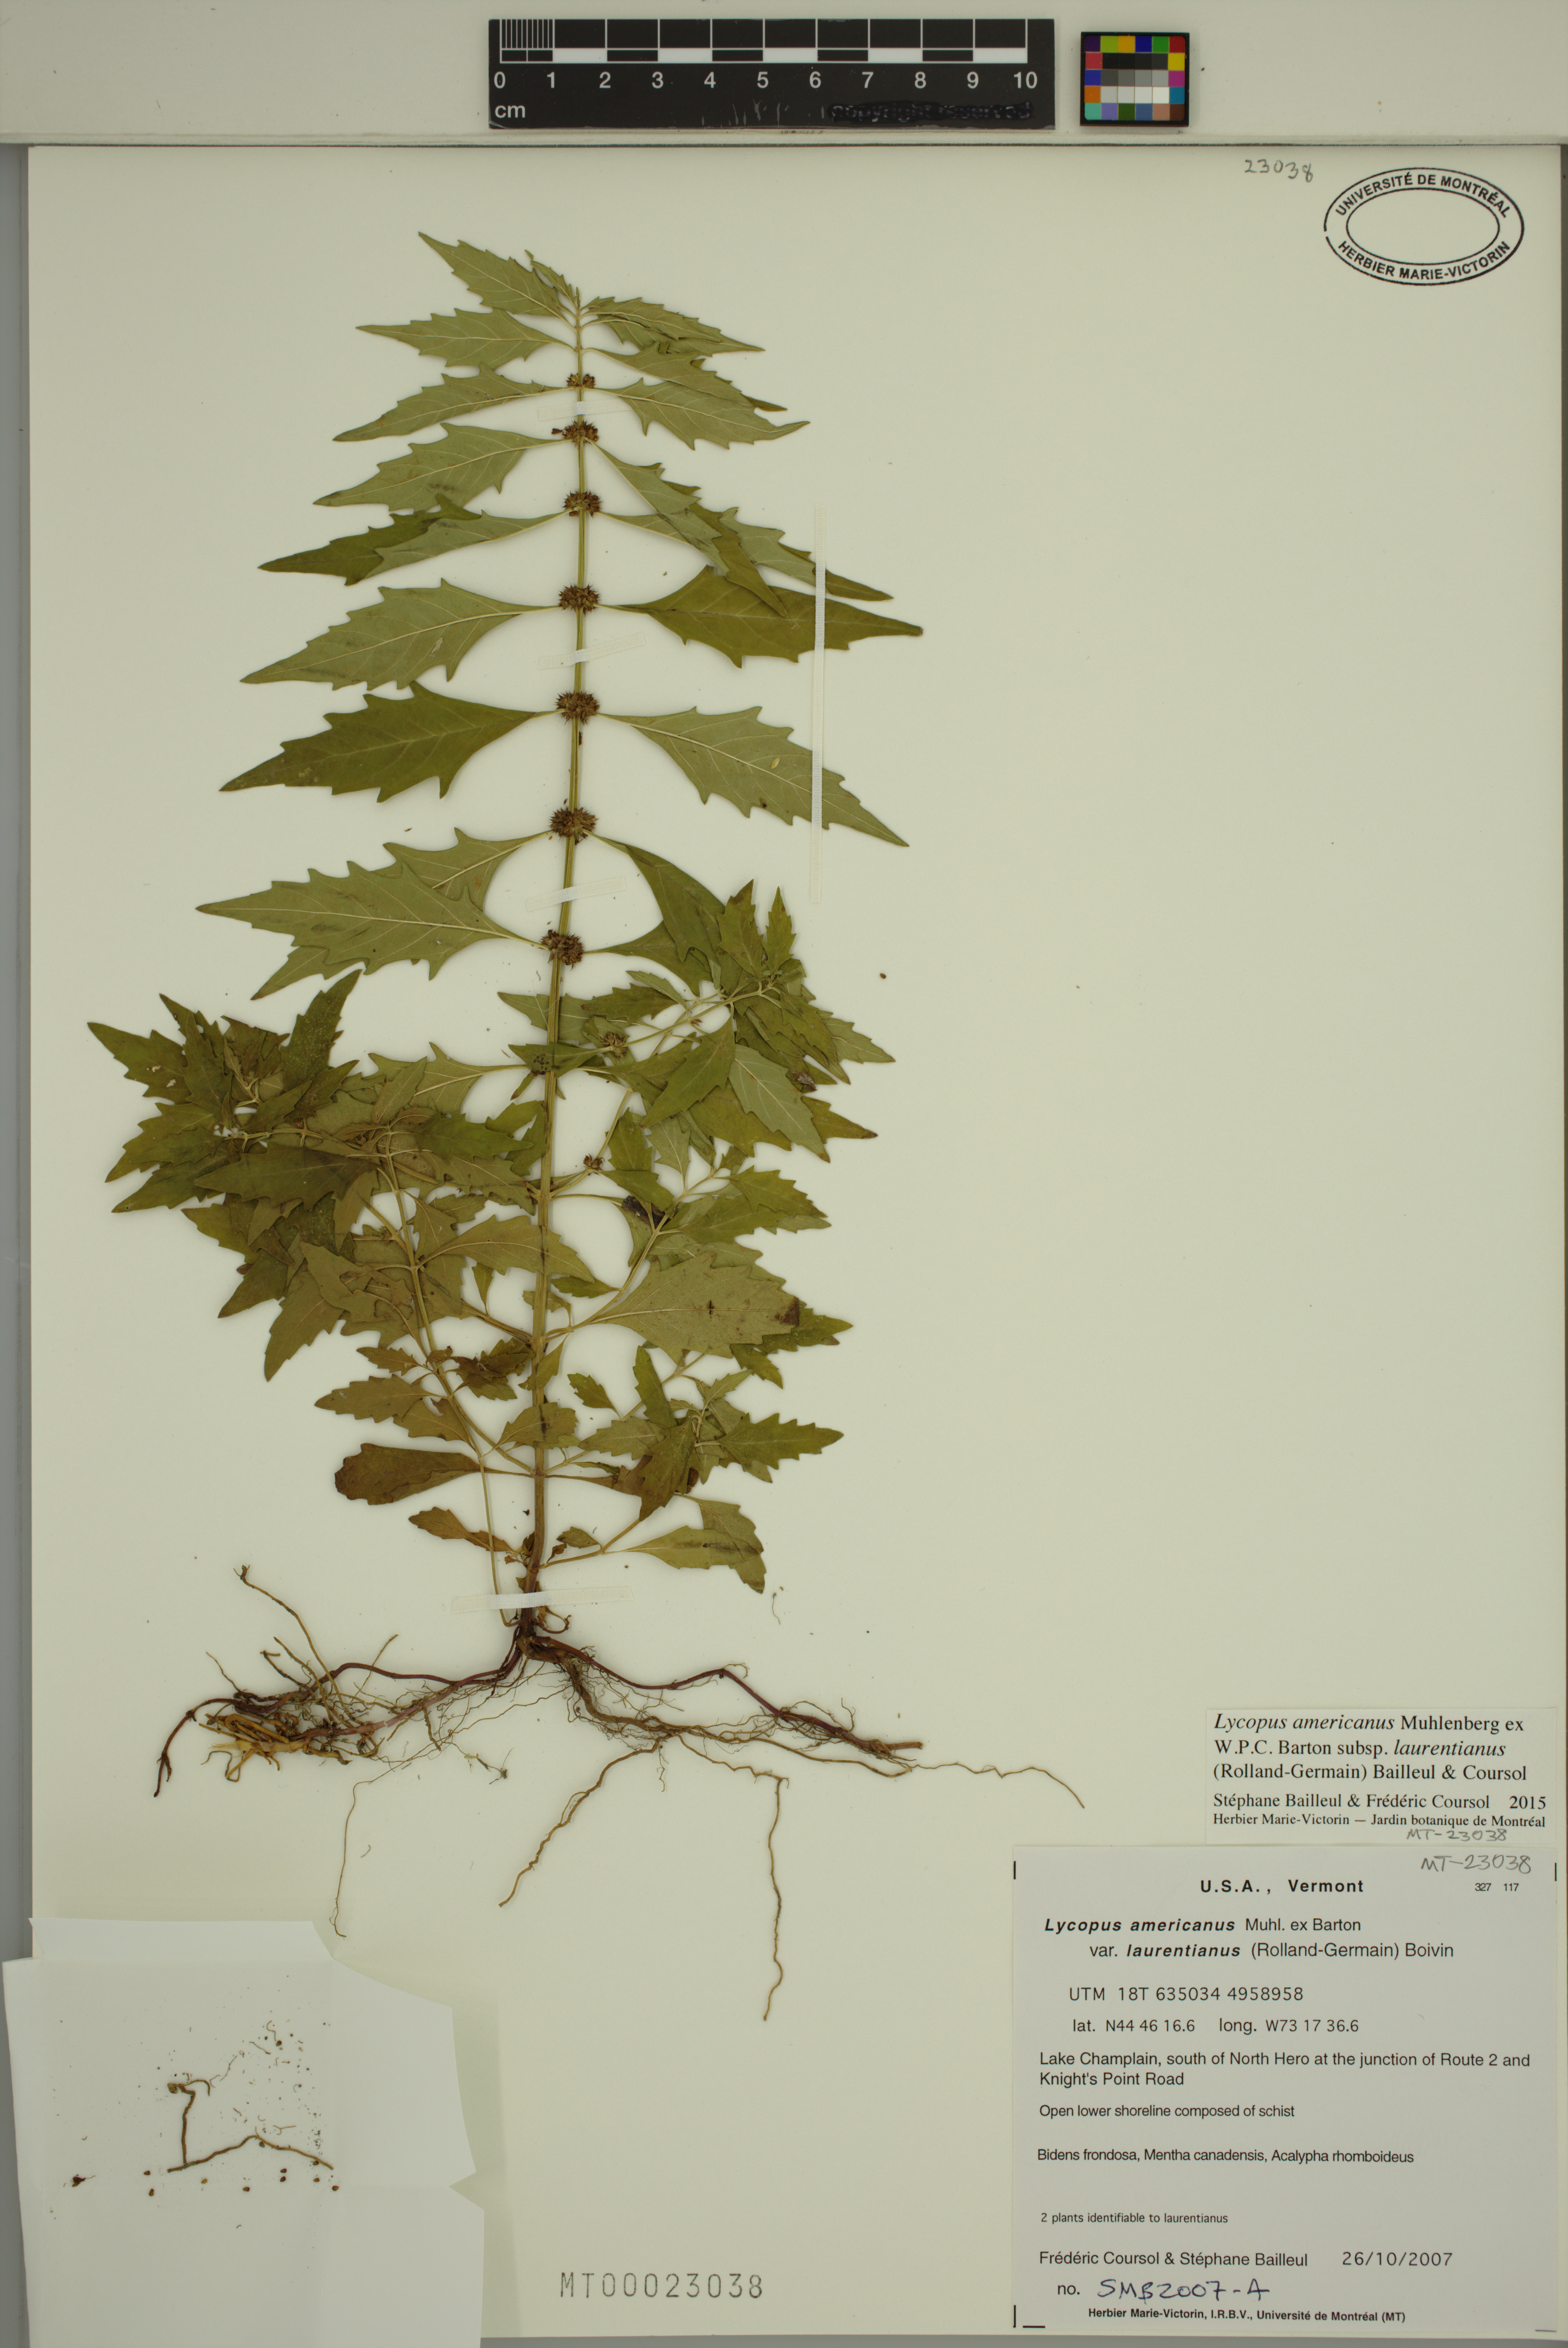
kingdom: Plantae
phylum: Tracheophyta
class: Magnoliopsida
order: Lamiales
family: Lamiaceae
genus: Lycopus
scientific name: Lycopus americanus
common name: American bugleweed
